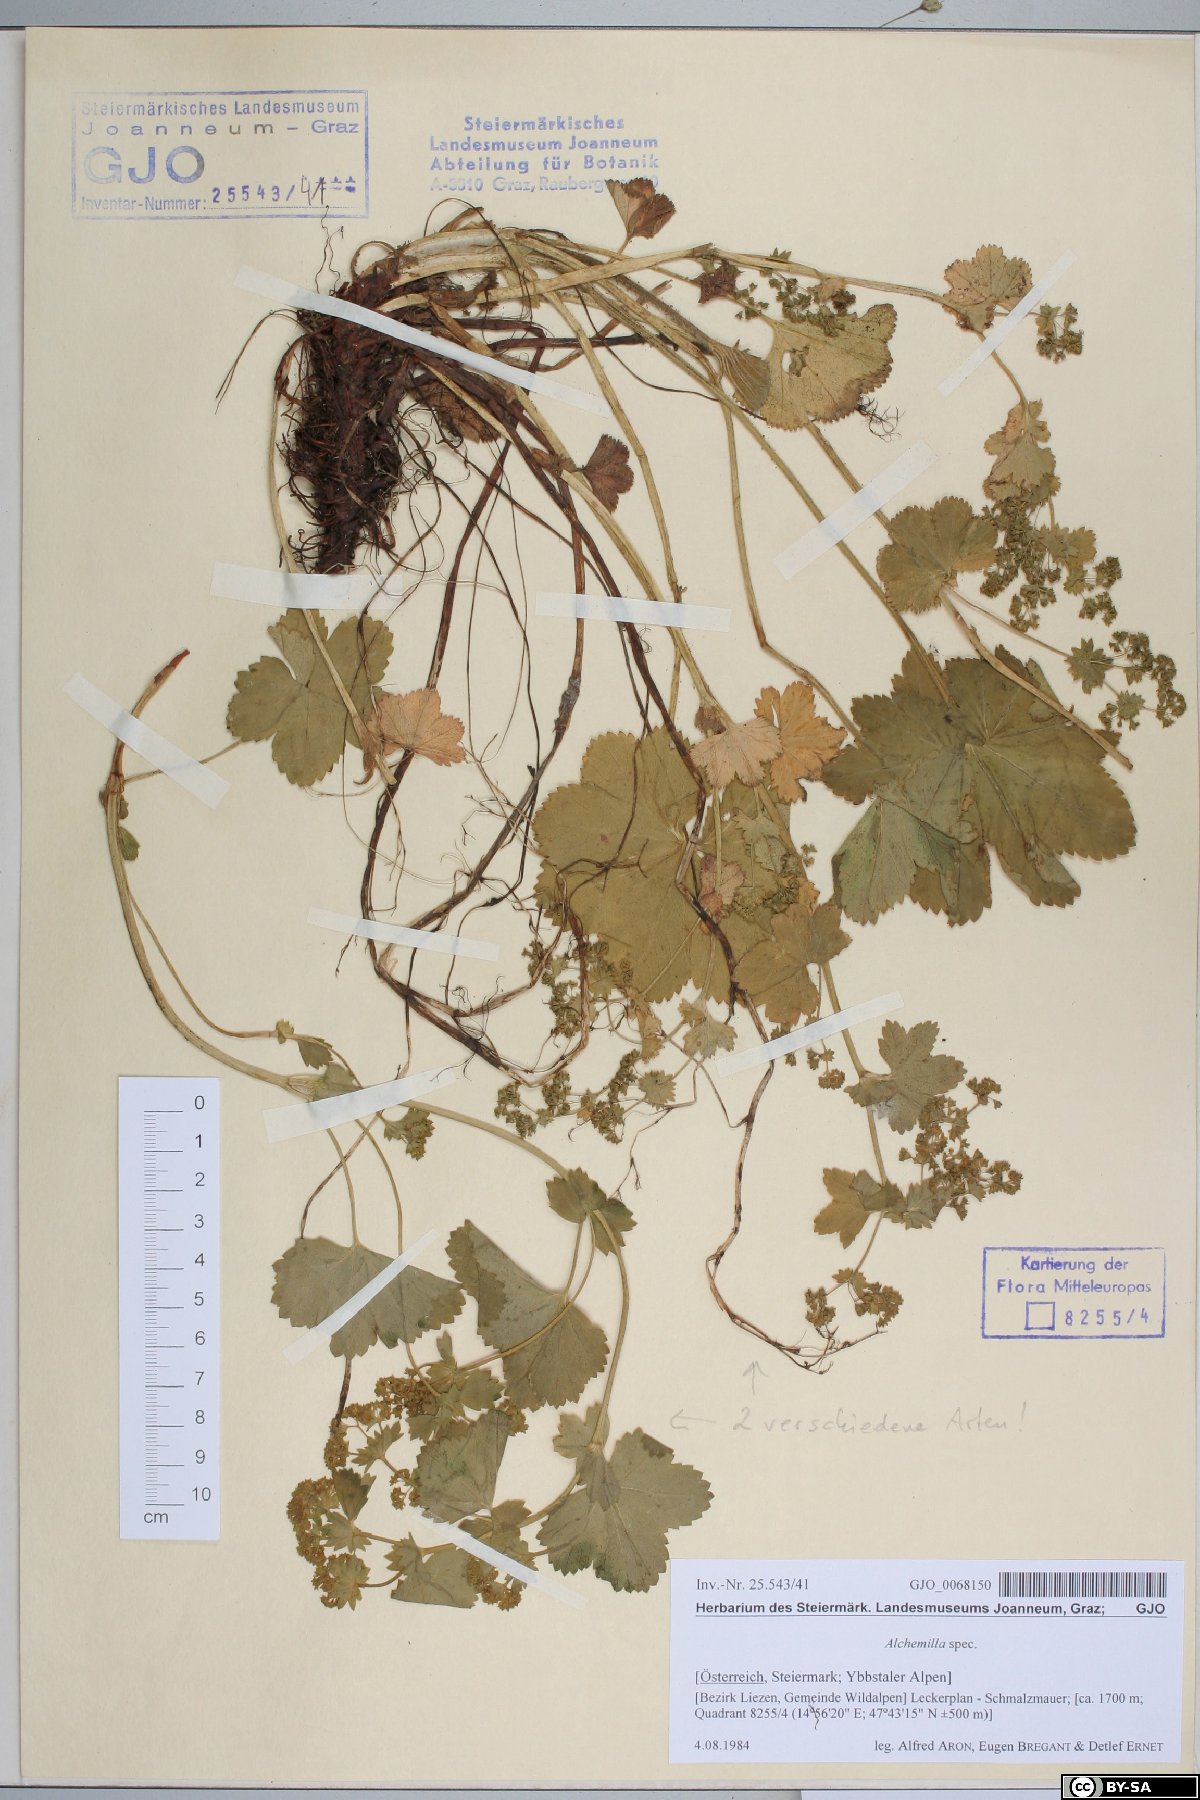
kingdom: Plantae
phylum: Tracheophyta
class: Magnoliopsida
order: Rosales
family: Rosaceae
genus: Alchemilla
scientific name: Alchemilla
